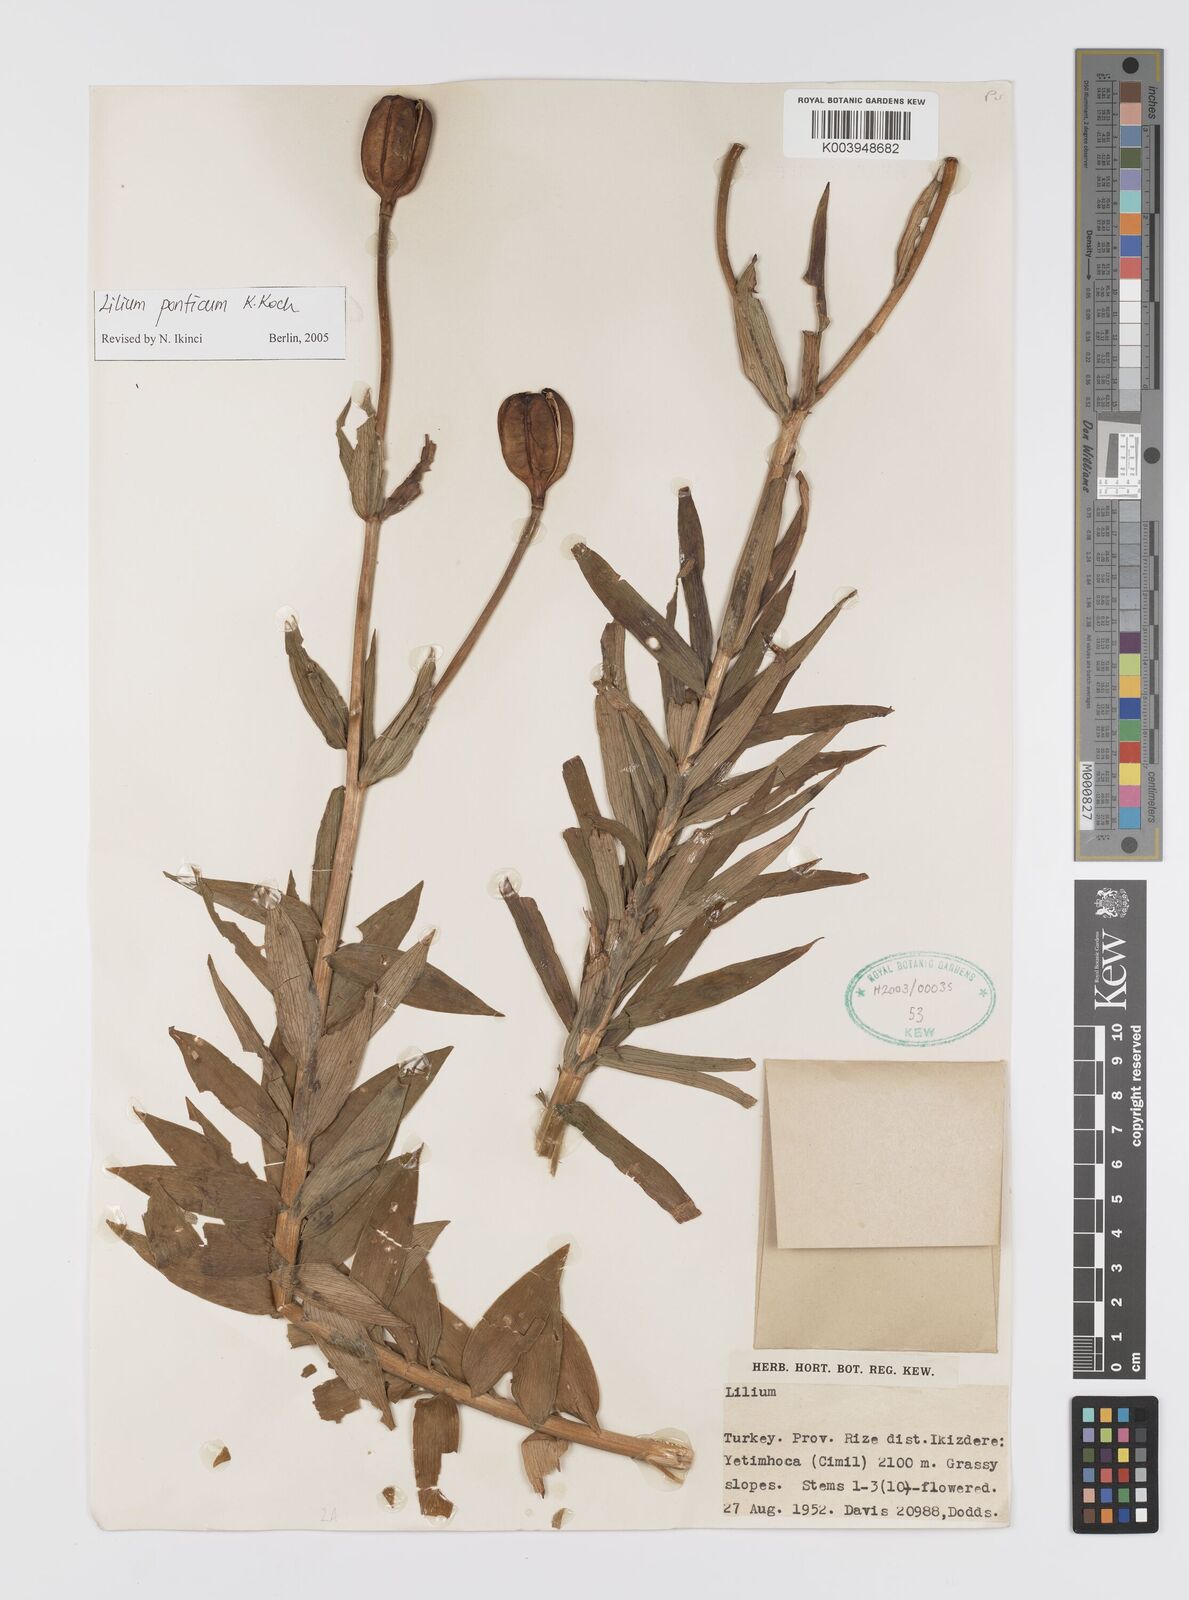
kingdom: Plantae
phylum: Tracheophyta
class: Liliopsida
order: Liliales
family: Liliaceae
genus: Lilium
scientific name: Lilium ponticum
